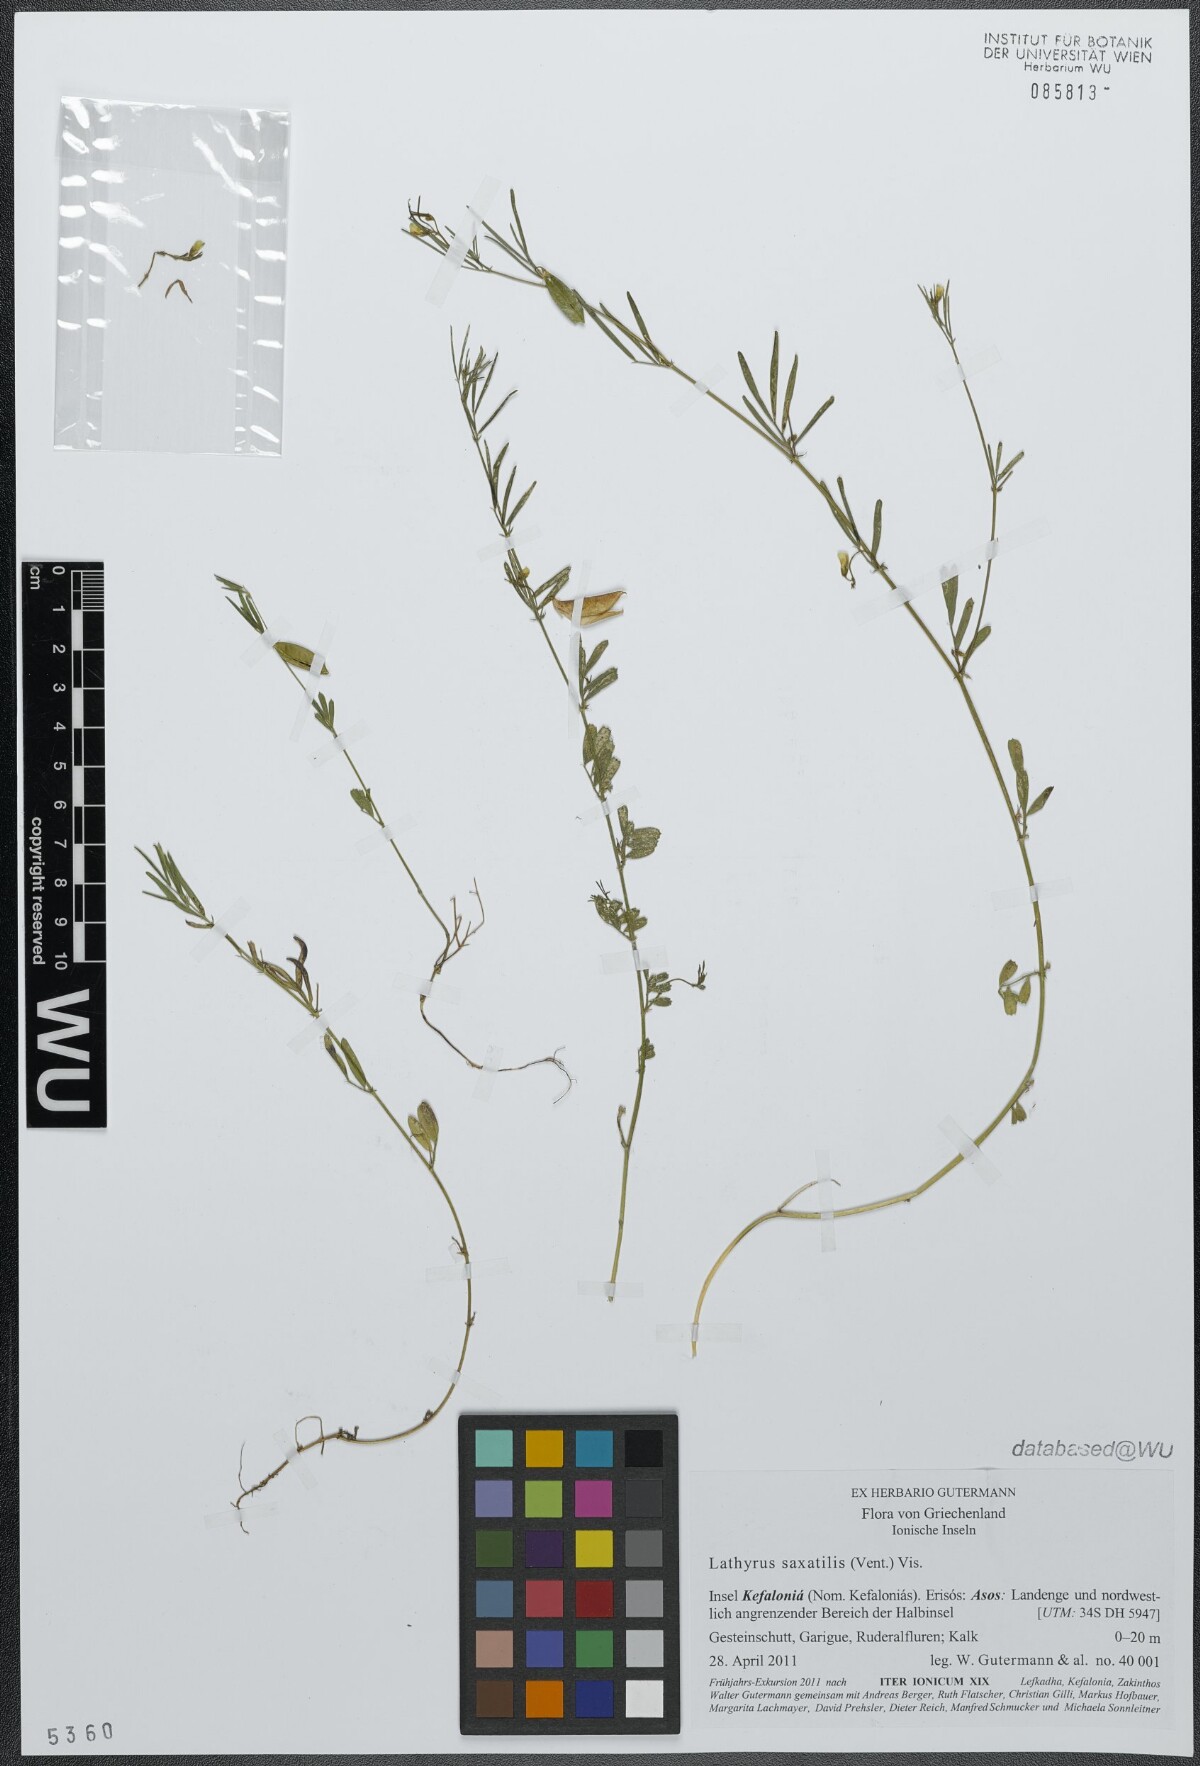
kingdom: Plantae
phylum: Tracheophyta
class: Magnoliopsida
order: Fabales
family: Fabaceae
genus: Lathyrus
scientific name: Lathyrus saxatilis
